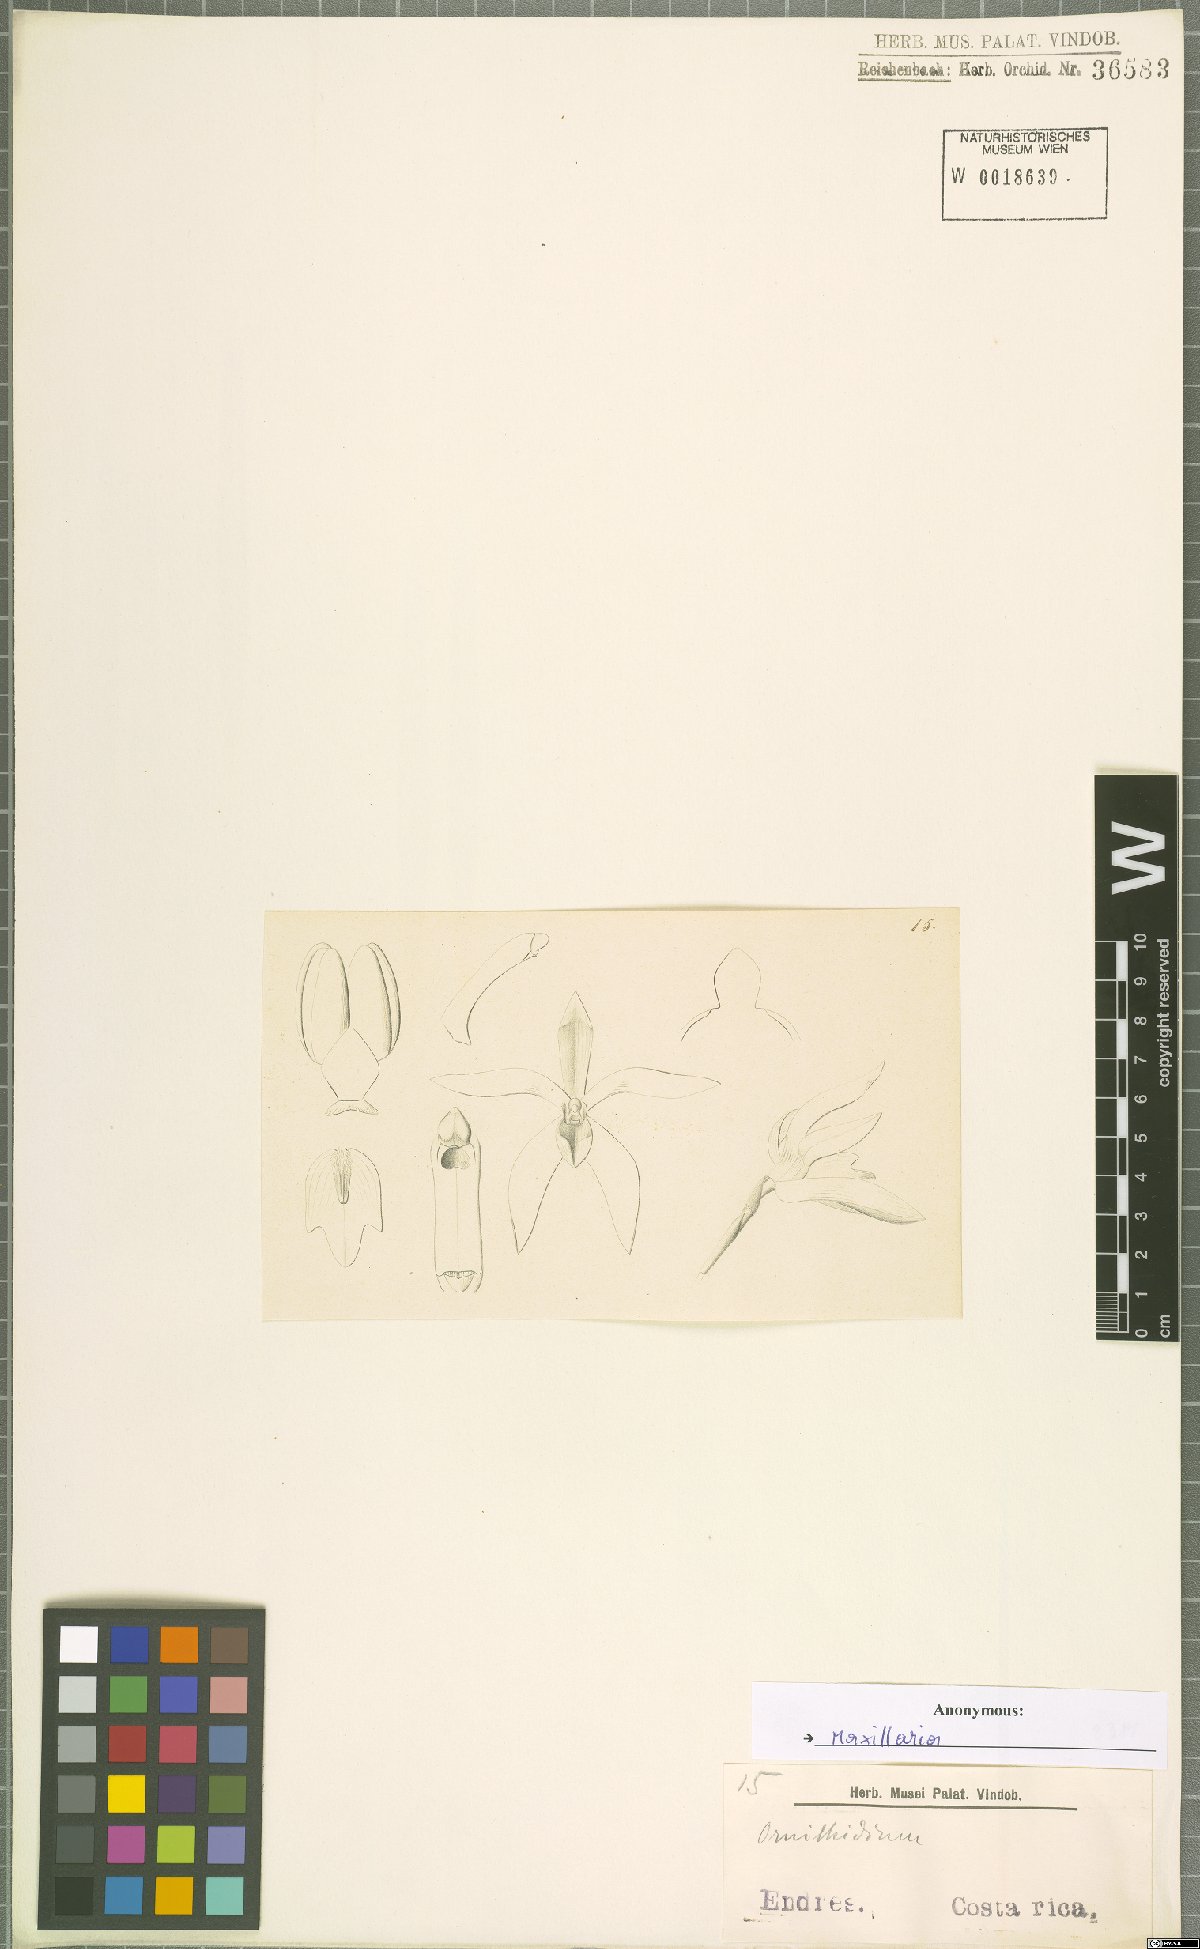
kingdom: Plantae
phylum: Tracheophyta
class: Liliopsida
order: Asparagales
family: Orchidaceae
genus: Maxillaria
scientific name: Maxillaria
